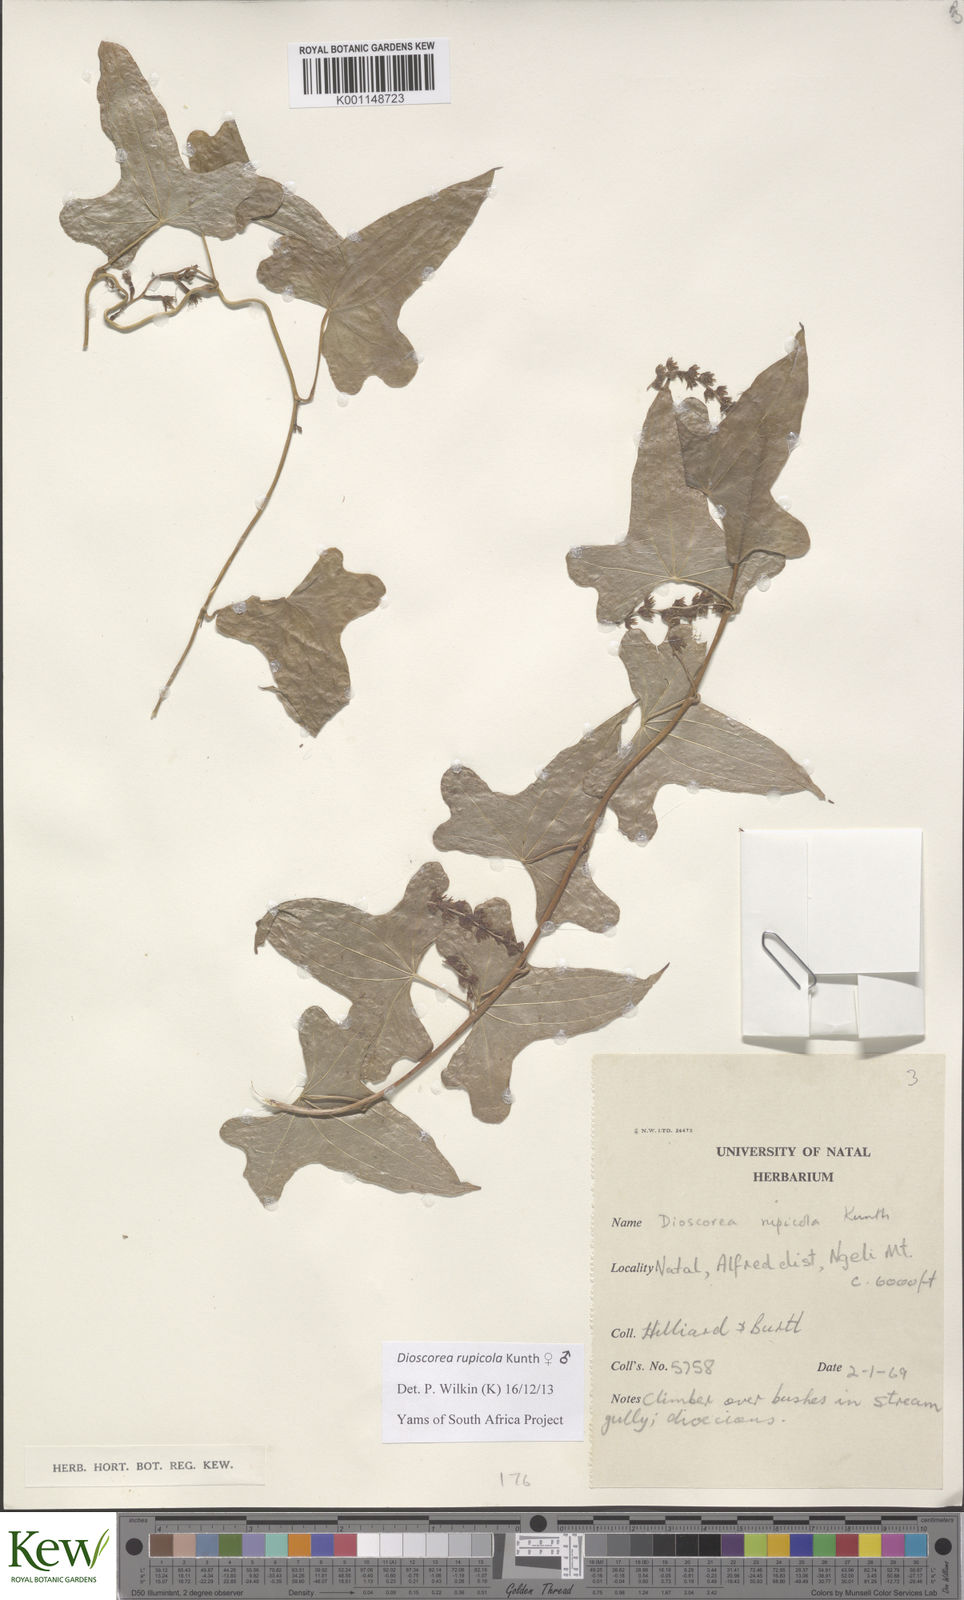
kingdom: Plantae
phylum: Tracheophyta
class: Liliopsida
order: Dioscoreales
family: Dioscoreaceae
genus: Dioscorea
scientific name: Dioscorea rupicola
